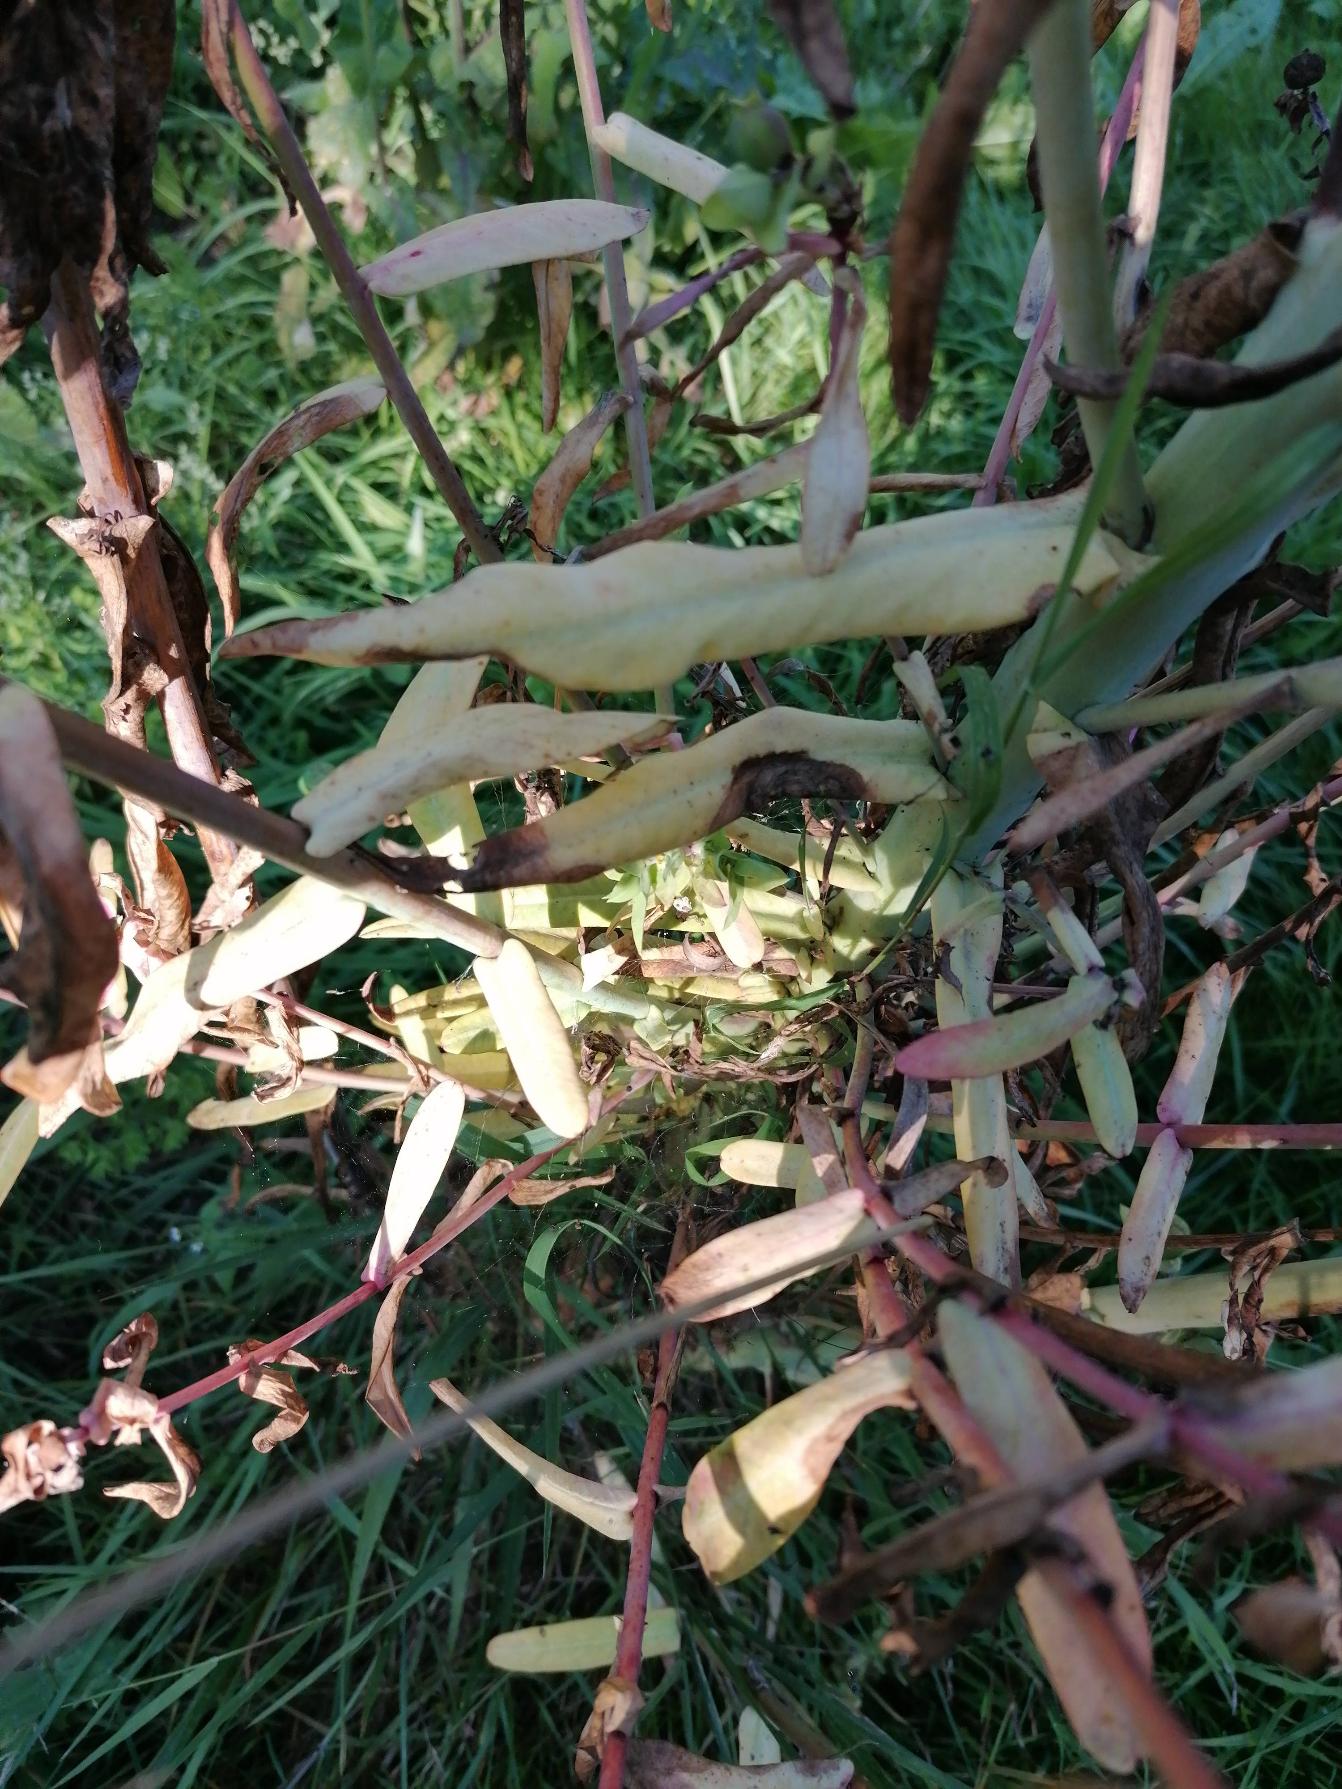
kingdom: Plantae
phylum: Tracheophyta
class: Magnoliopsida
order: Malpighiales
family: Euphorbiaceae
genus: Euphorbia
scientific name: Euphorbia lathyris
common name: Kors-vortemælk
